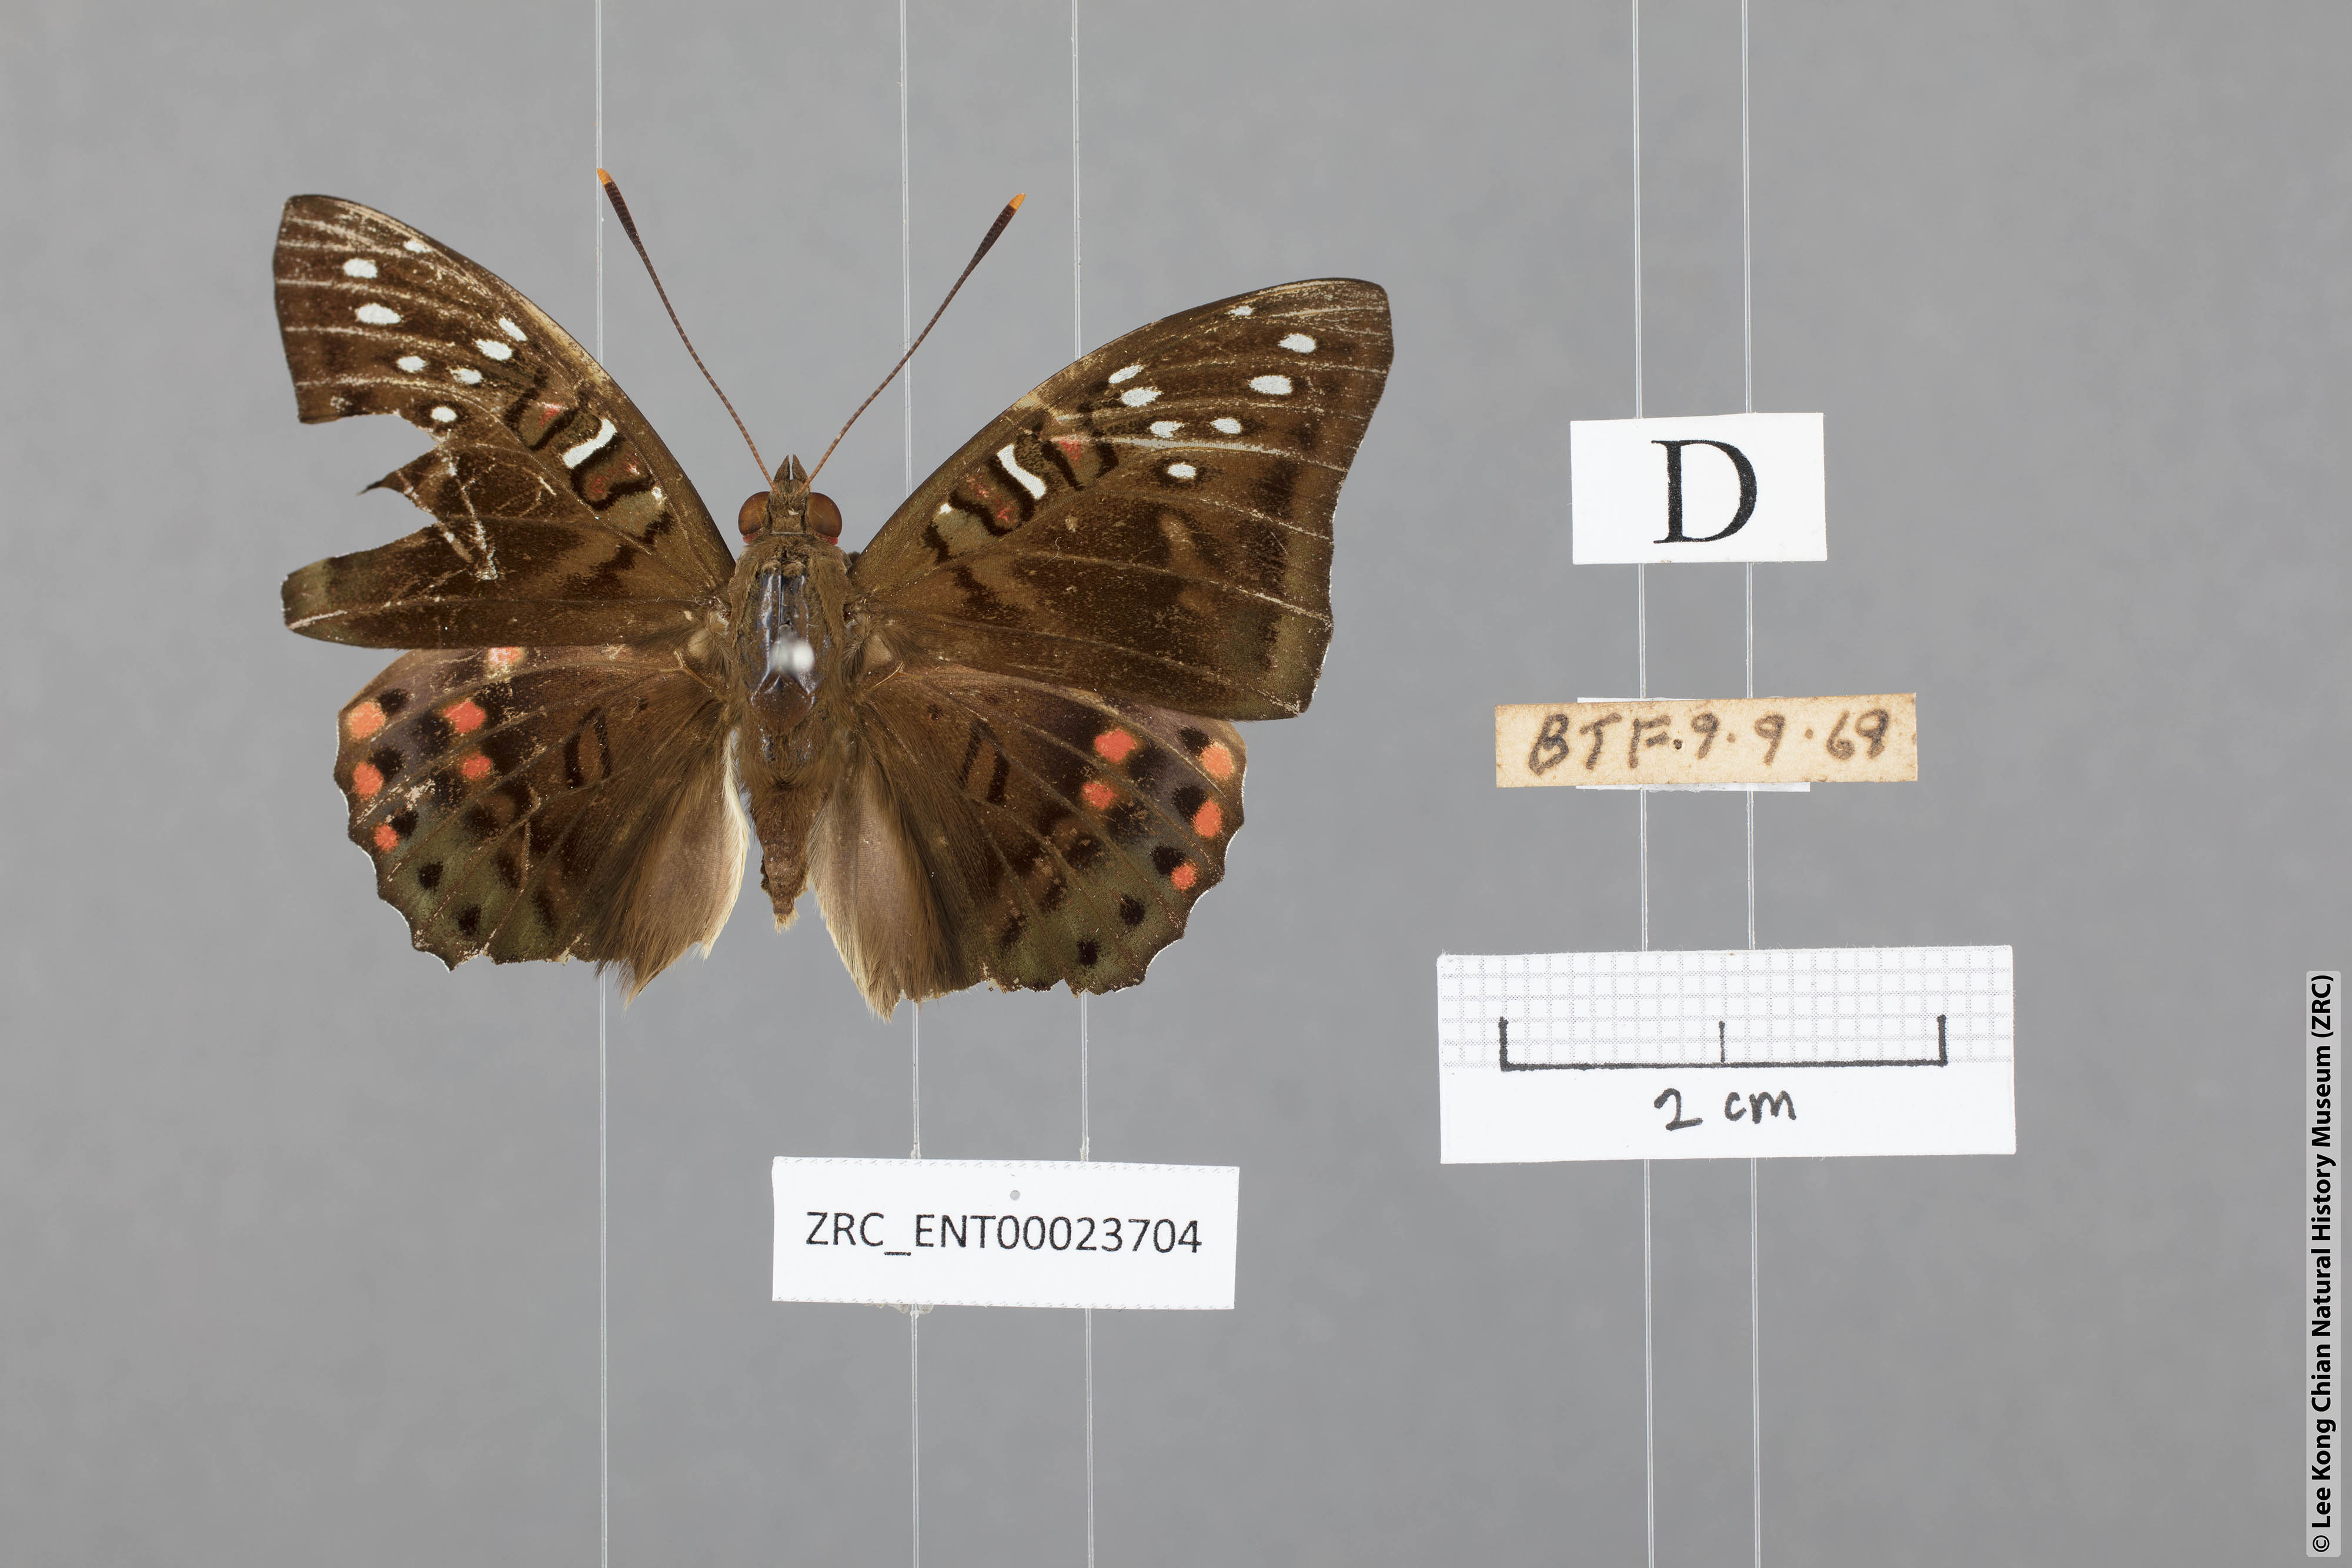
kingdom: Animalia
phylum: Arthropoda
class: Insecta
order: Lepidoptera
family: Nymphalidae
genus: Euthalia
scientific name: Euthalia lubentina
